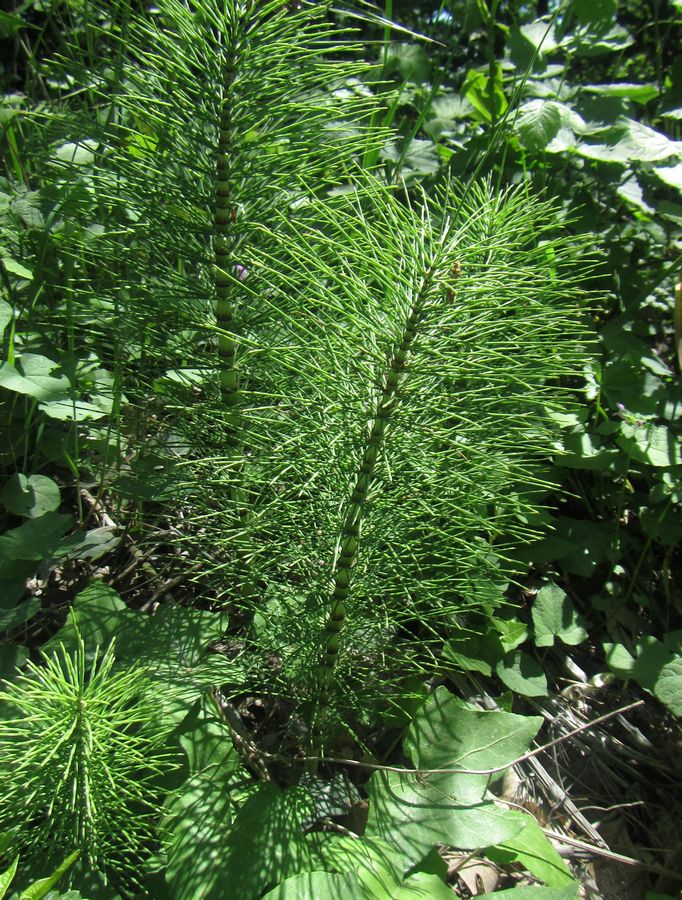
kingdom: Plantae
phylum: Tracheophyta
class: Polypodiopsida
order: Equisetales
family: Equisetaceae
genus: Equisetum
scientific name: Equisetum
